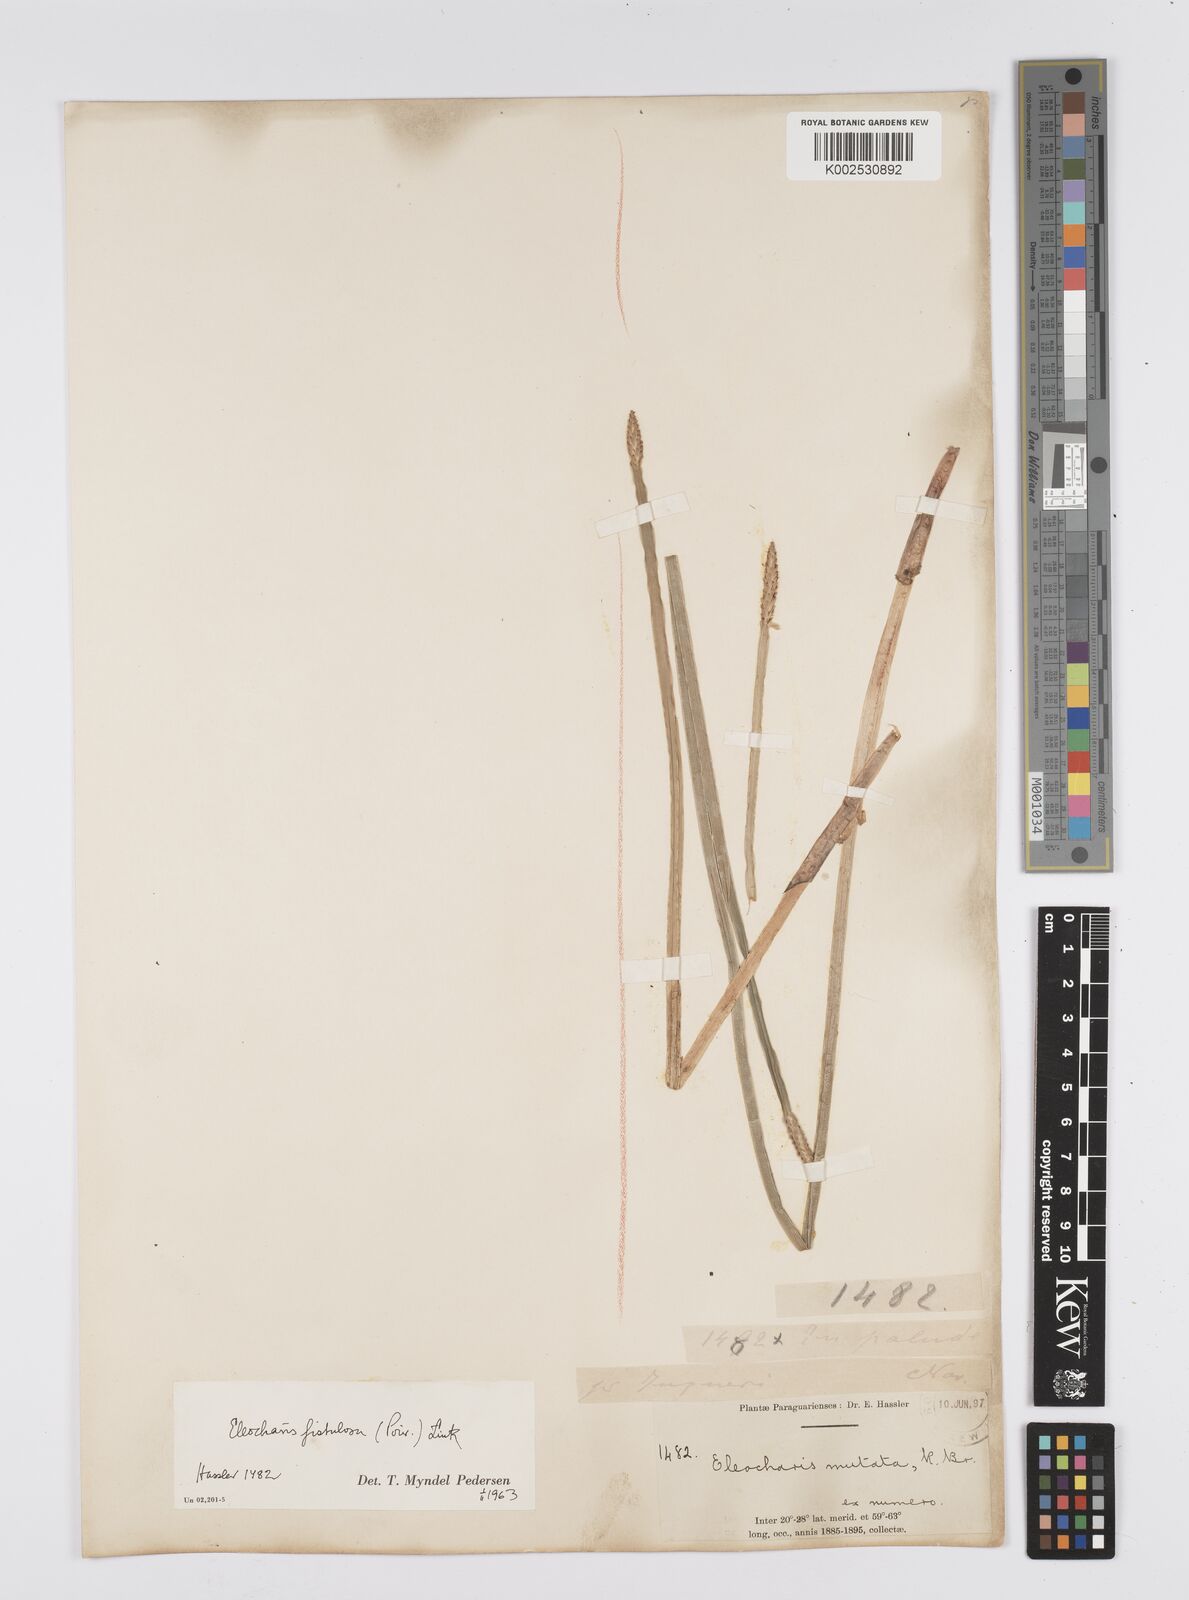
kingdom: Plantae
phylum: Tracheophyta
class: Liliopsida
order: Poales
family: Cyperaceae
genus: Eleocharis
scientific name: Eleocharis acutangula
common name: Acute spikerush
